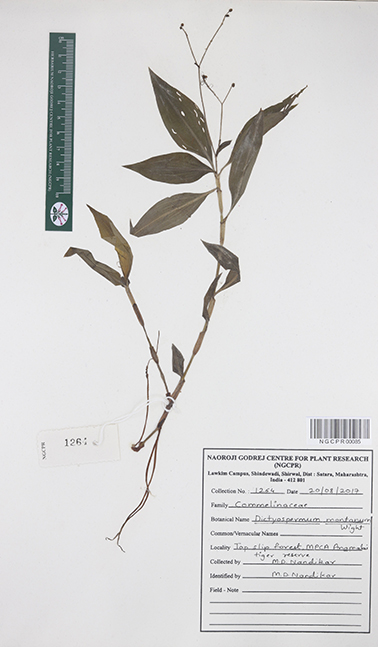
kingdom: Plantae
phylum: Tracheophyta
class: Liliopsida
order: Commelinales
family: Commelinaceae
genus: Dictyospermum
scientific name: Dictyospermum montanum
